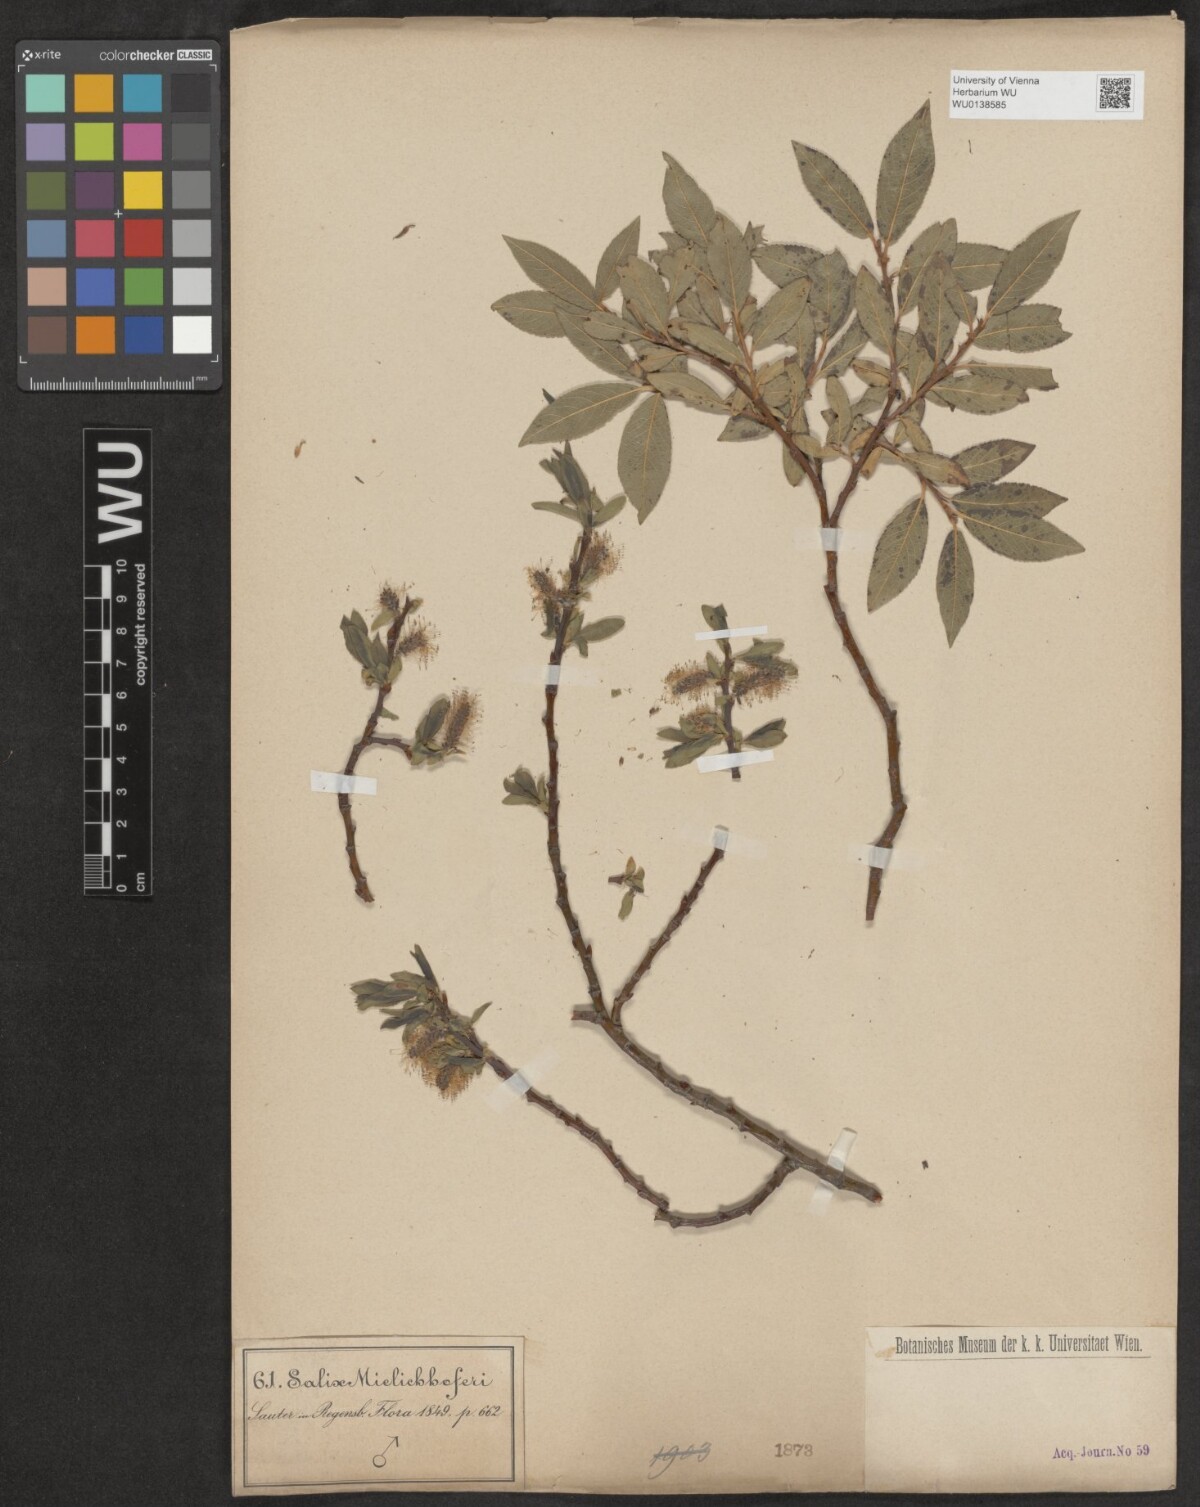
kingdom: Plantae
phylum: Tracheophyta
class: Magnoliopsida
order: Malpighiales
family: Salicaceae
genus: Salix
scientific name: Salix mielichhoferi
